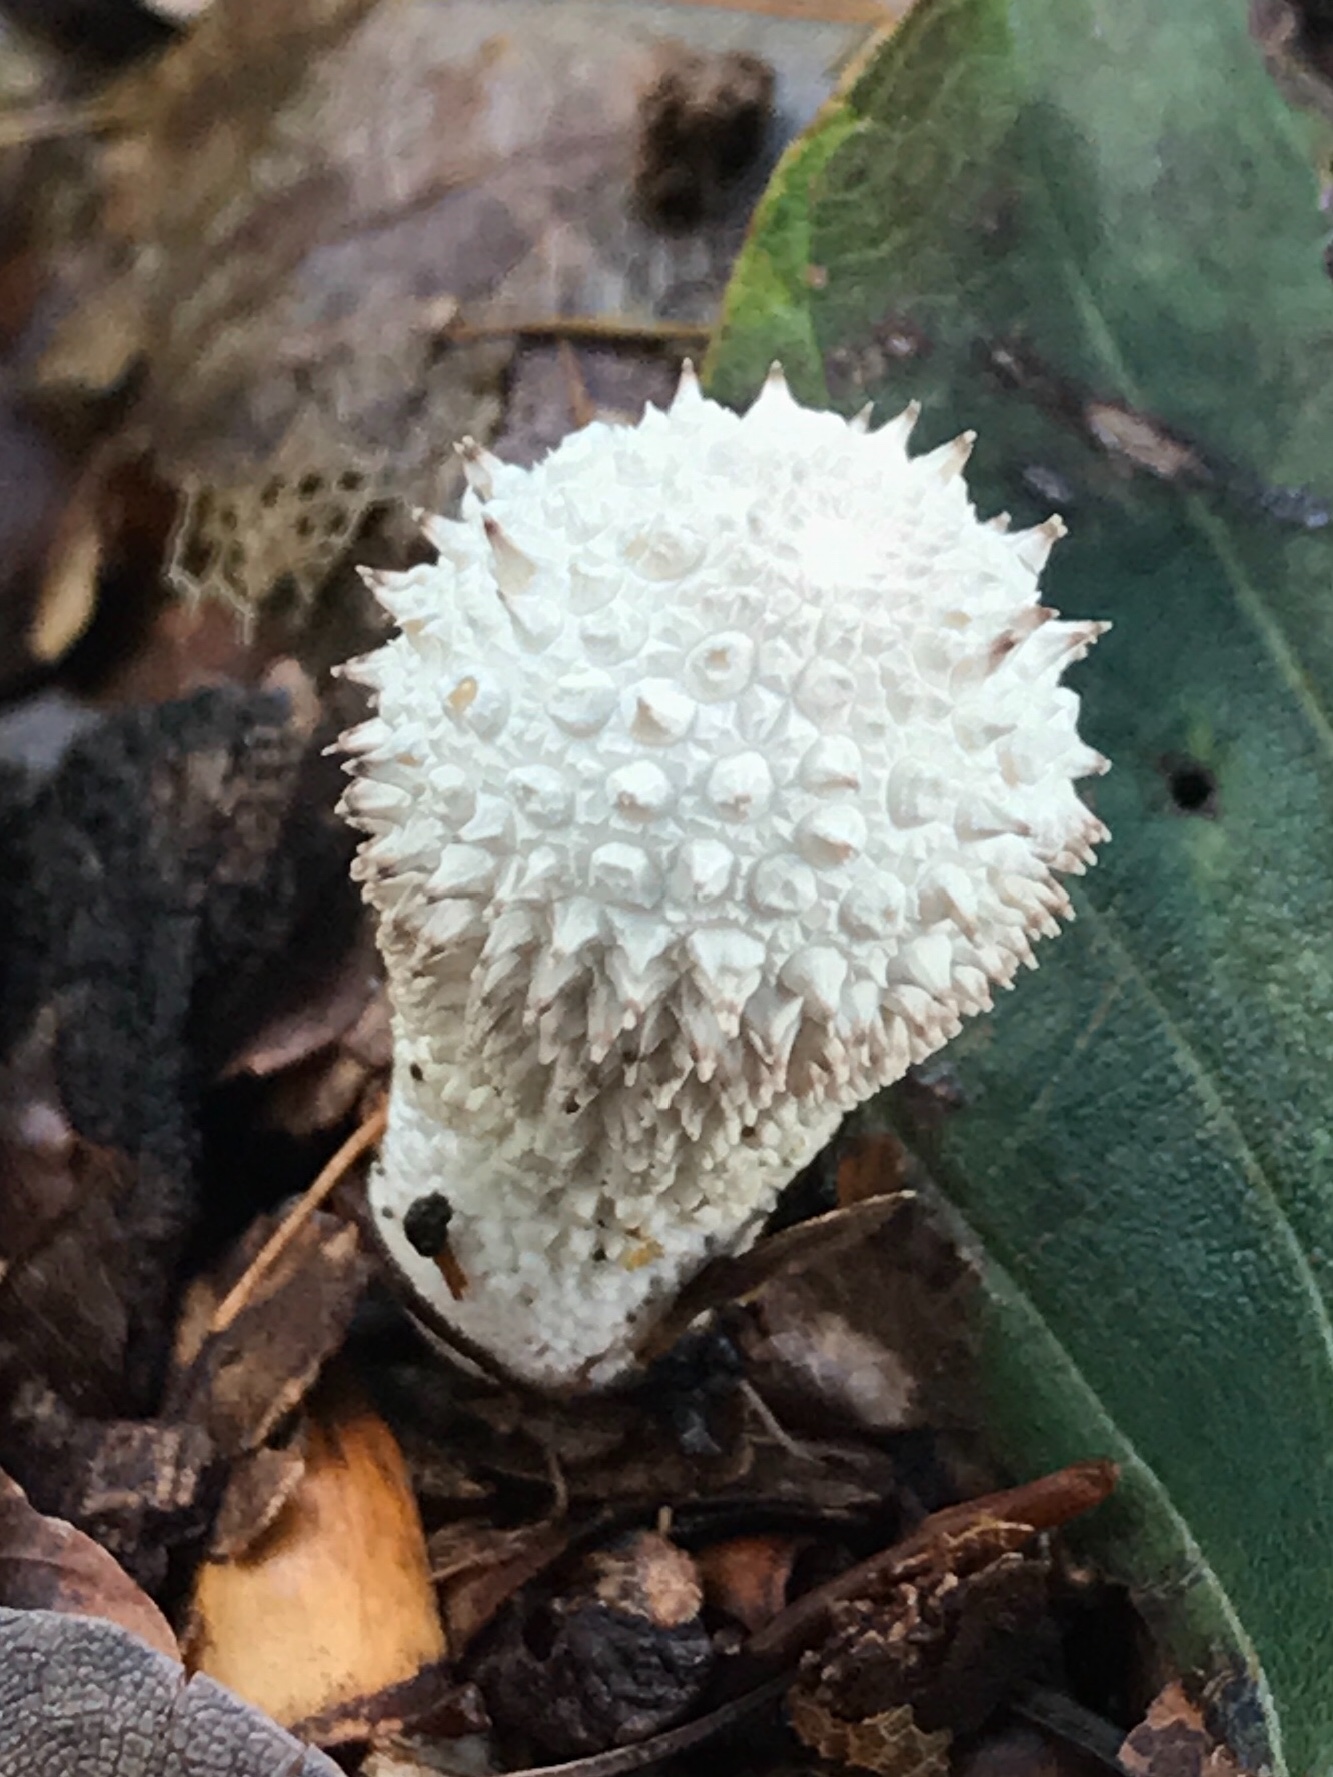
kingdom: Fungi
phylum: Basidiomycota
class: Agaricomycetes
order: Agaricales
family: Lycoperdaceae
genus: Lycoperdon
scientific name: Lycoperdon perlatum
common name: krystal-støvbold
